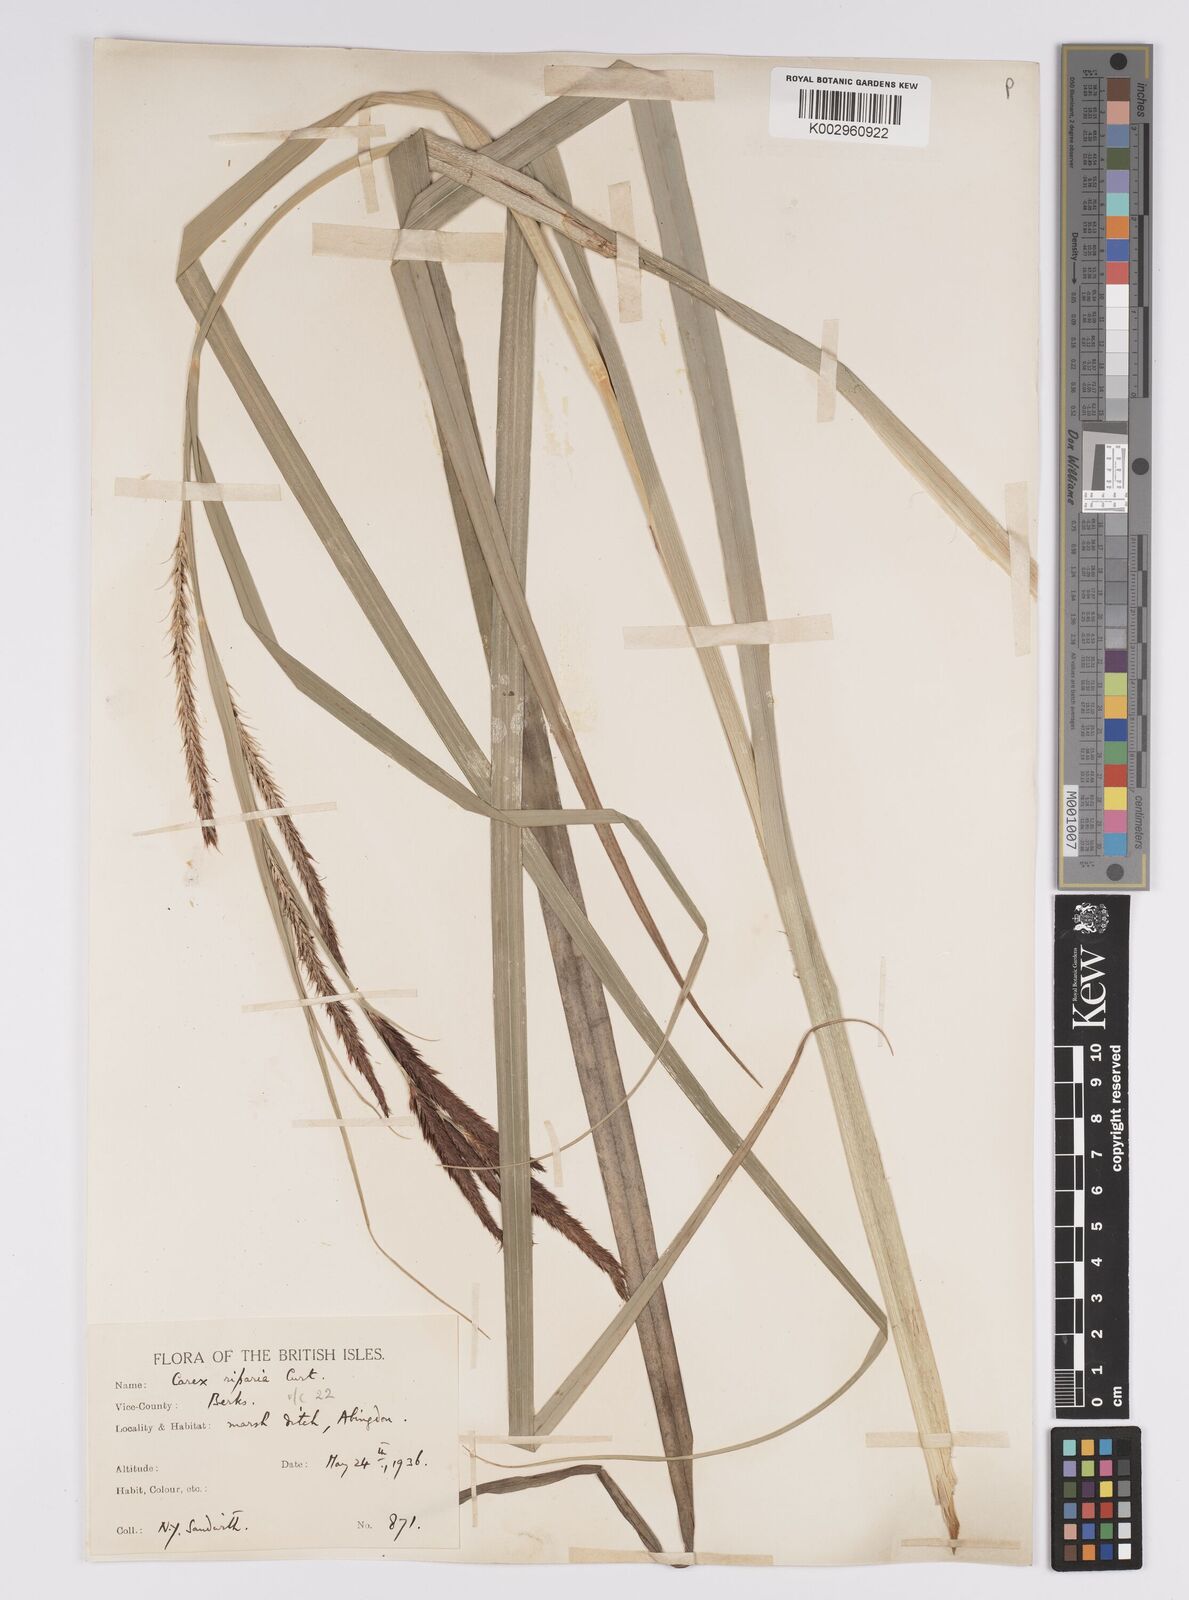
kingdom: Plantae
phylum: Tracheophyta
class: Liliopsida
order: Poales
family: Cyperaceae
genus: Carex
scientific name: Carex riparia
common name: Greater pond-sedge
